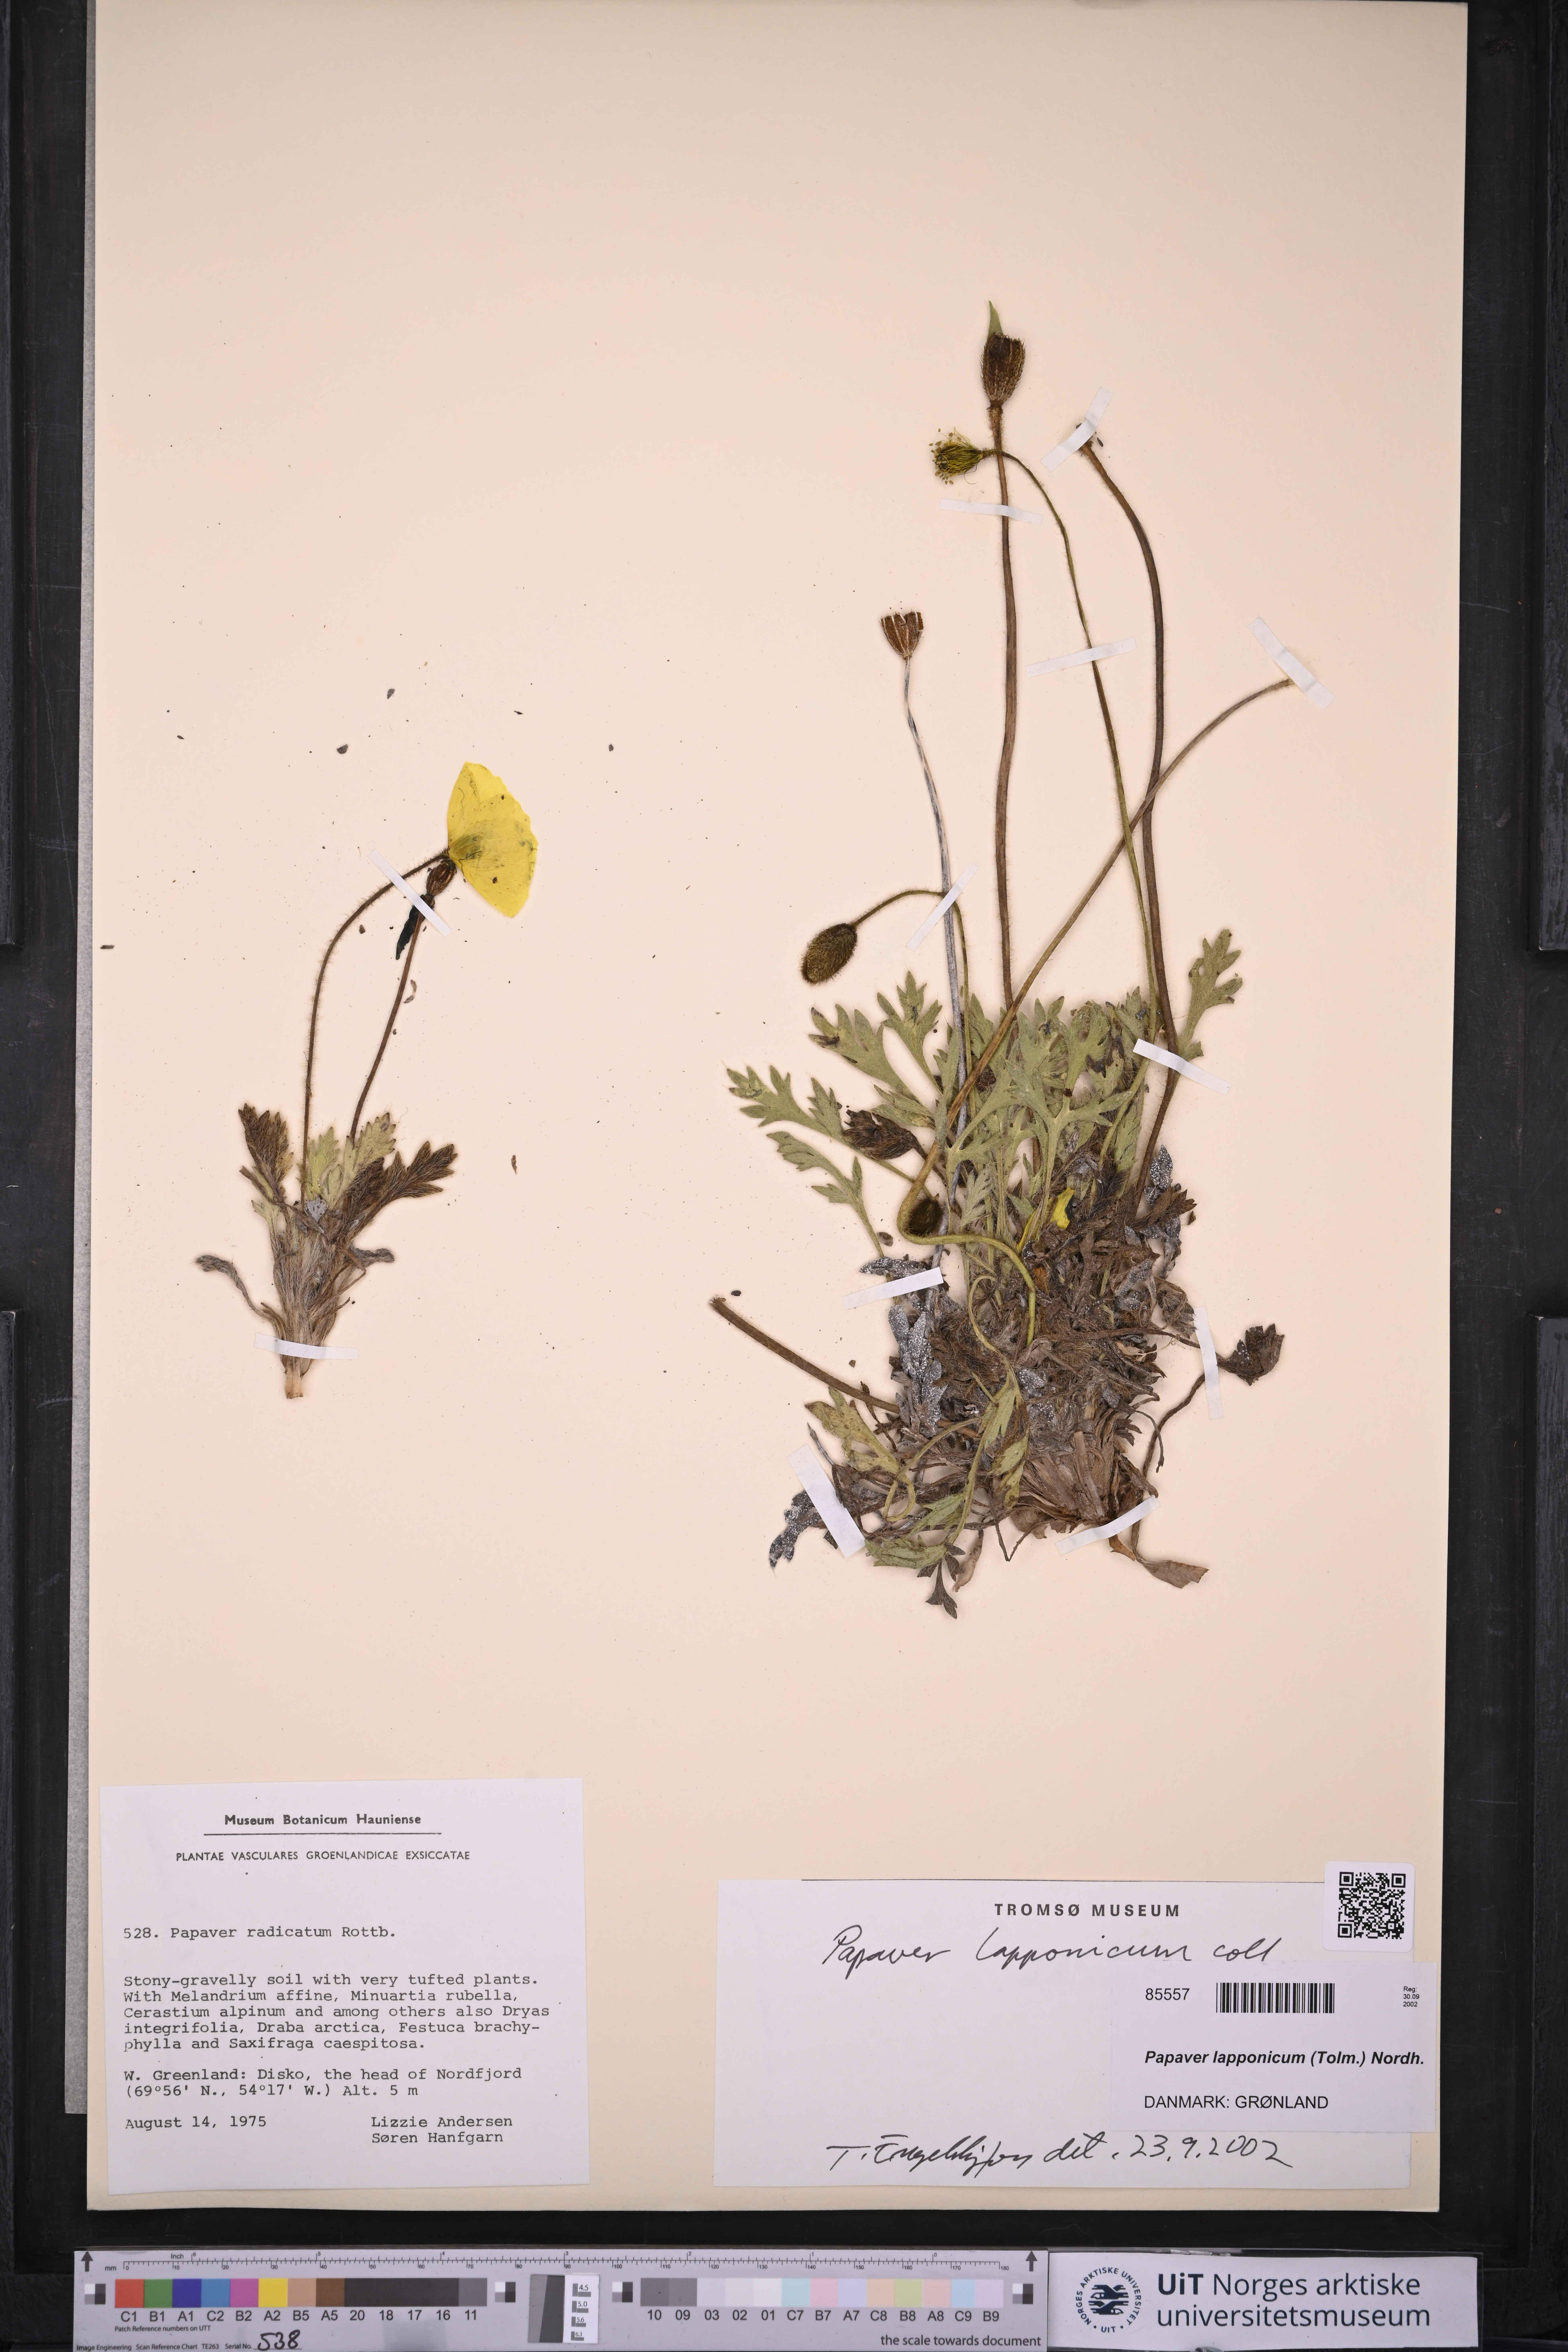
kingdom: Plantae
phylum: Tracheophyta
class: Magnoliopsida
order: Ranunculales
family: Papaveraceae
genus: Papaver
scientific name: Papaver lapponicum
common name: Lapland poppy
